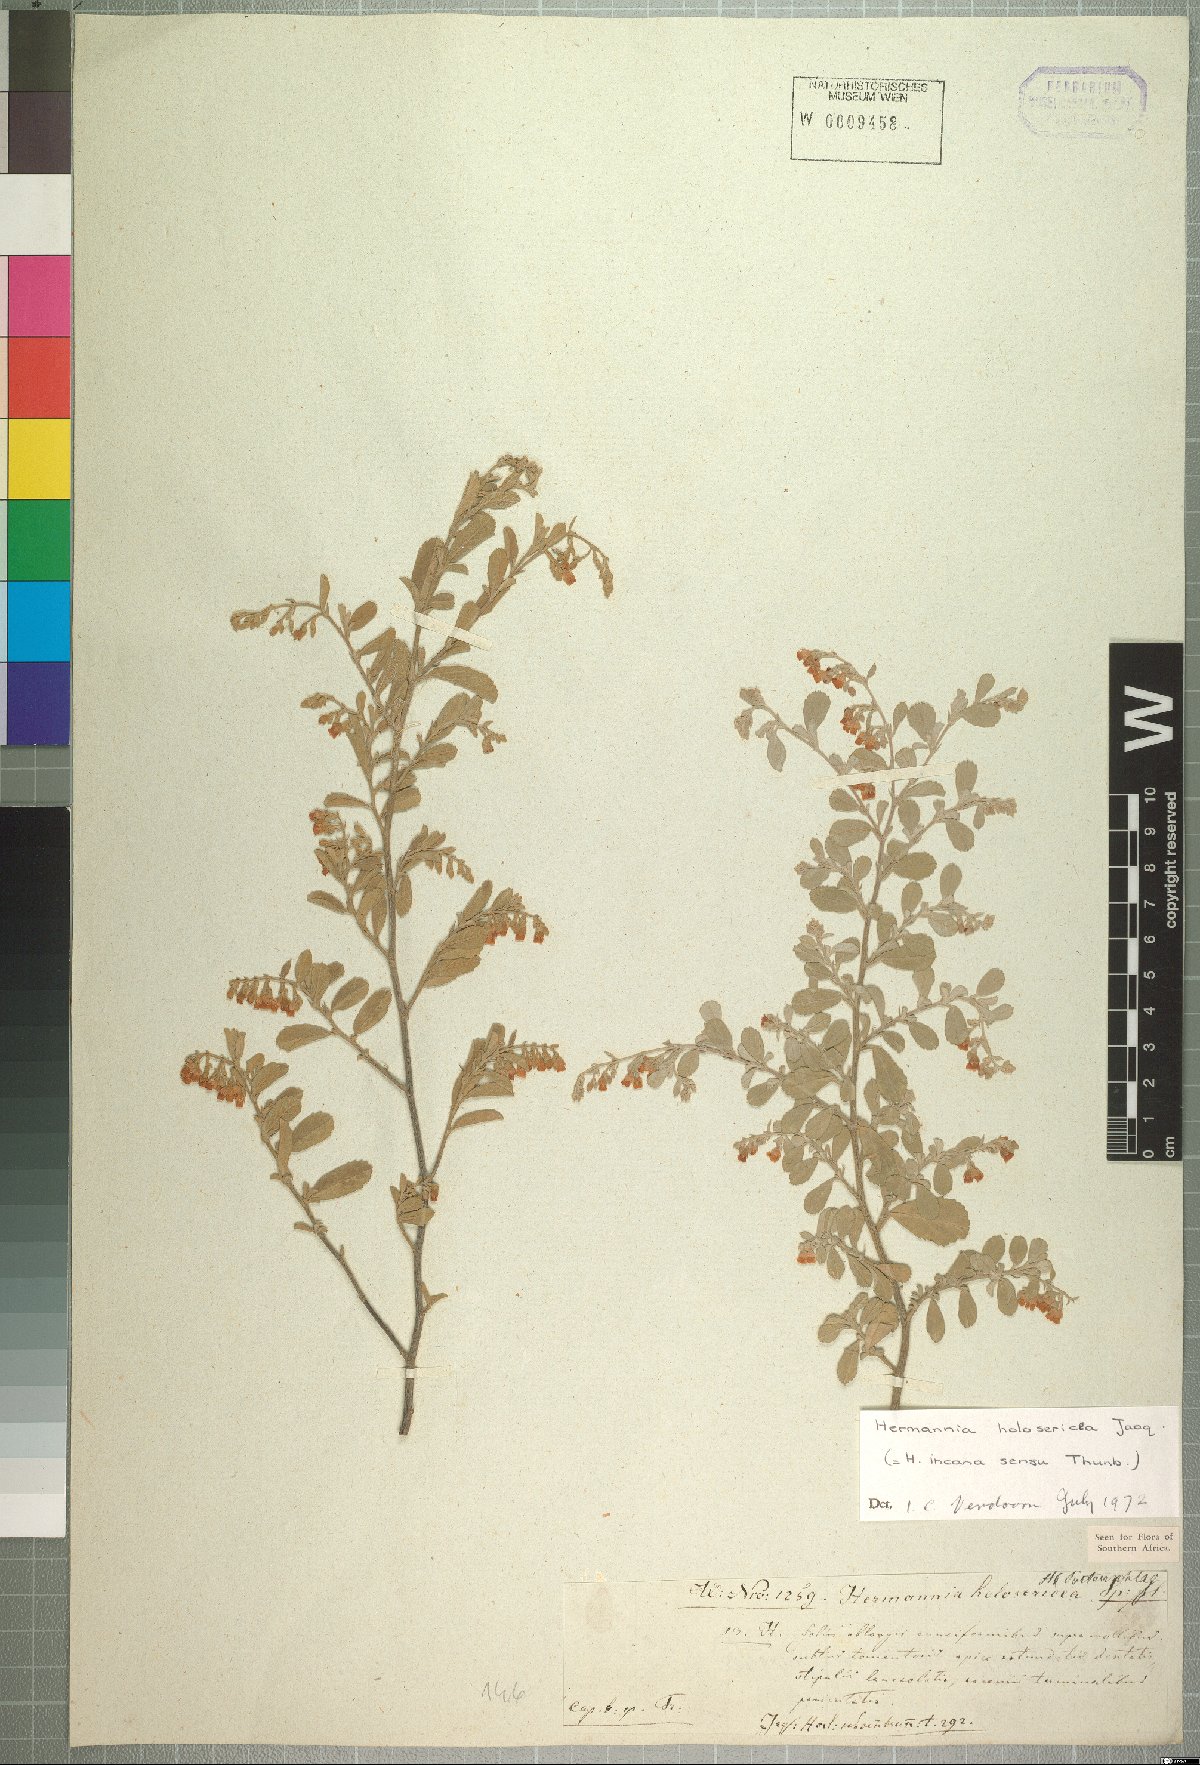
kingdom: Plantae
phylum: Tracheophyta
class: Magnoliopsida
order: Malvales
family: Malvaceae
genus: Hermannia
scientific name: Hermannia holosericea
